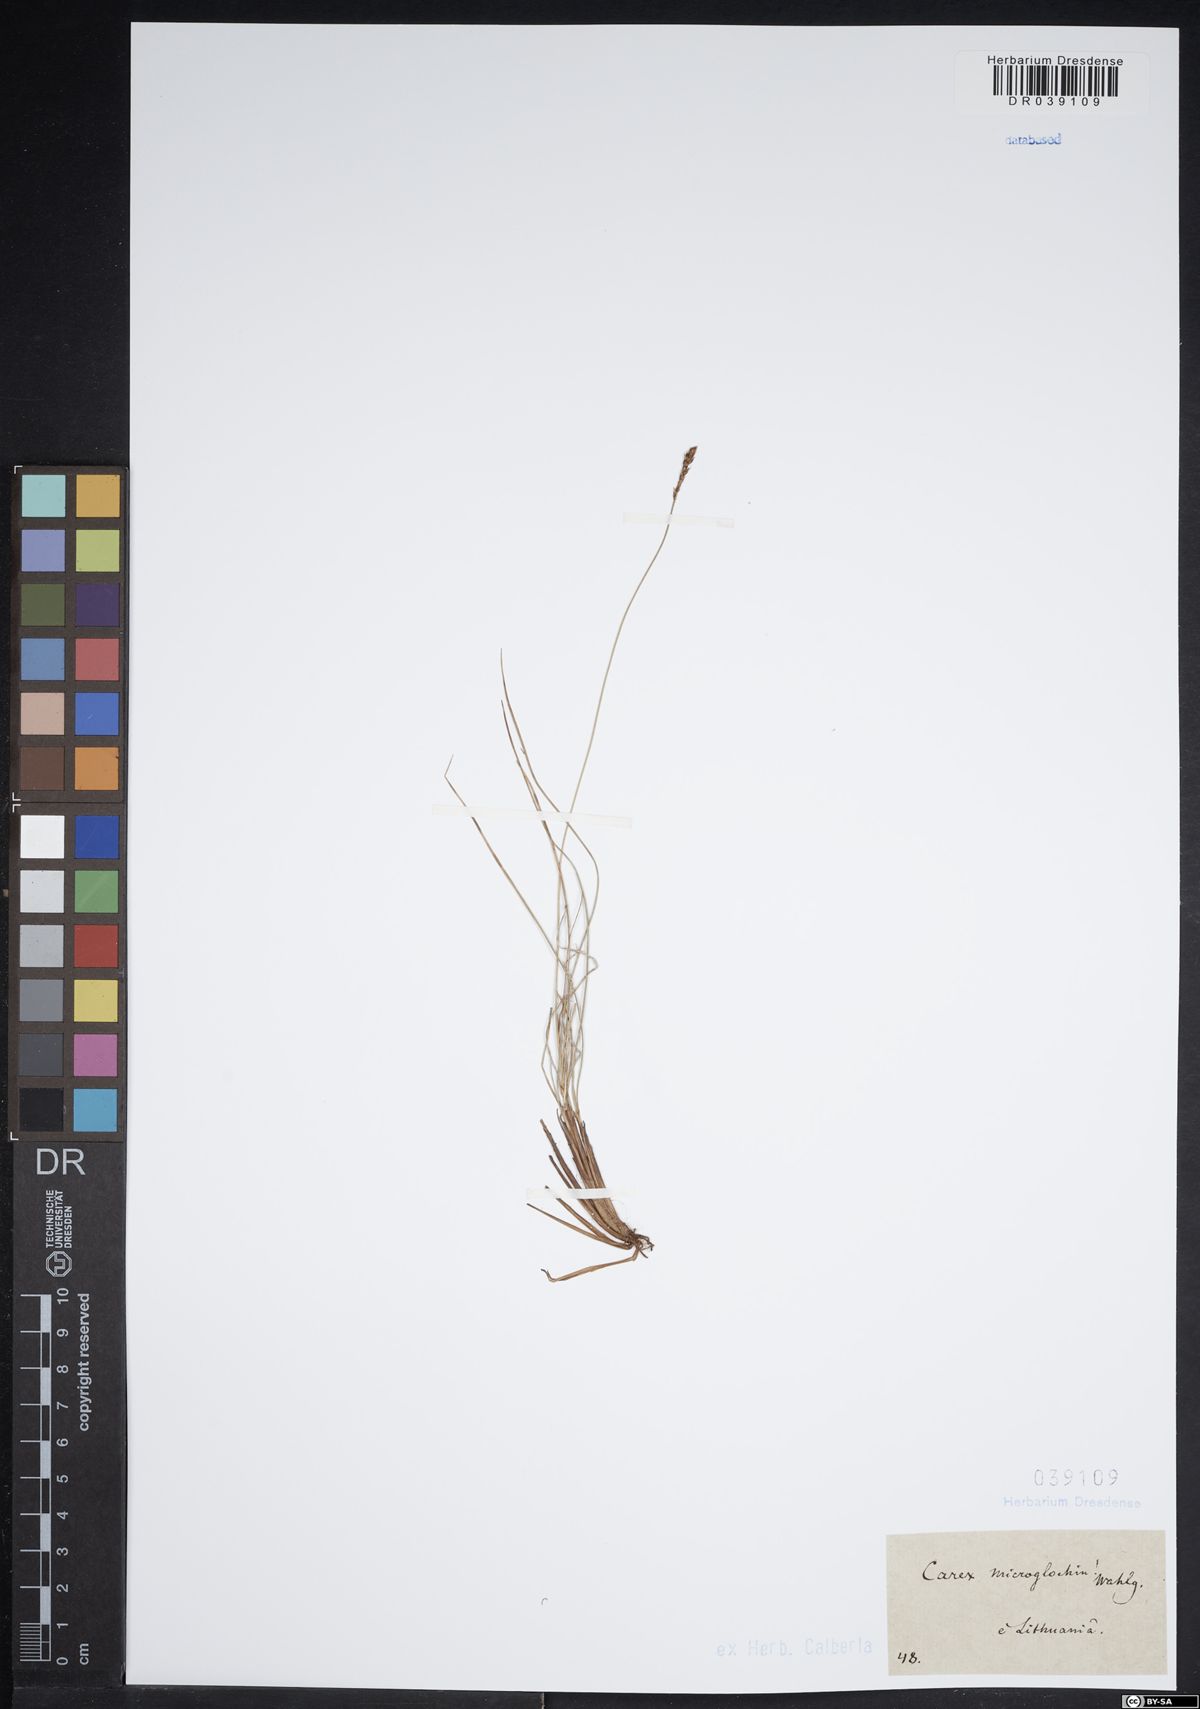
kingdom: Plantae
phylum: Tracheophyta
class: Liliopsida
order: Poales
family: Cyperaceae
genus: Carex
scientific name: Carex microglochin
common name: Bristle sedge
